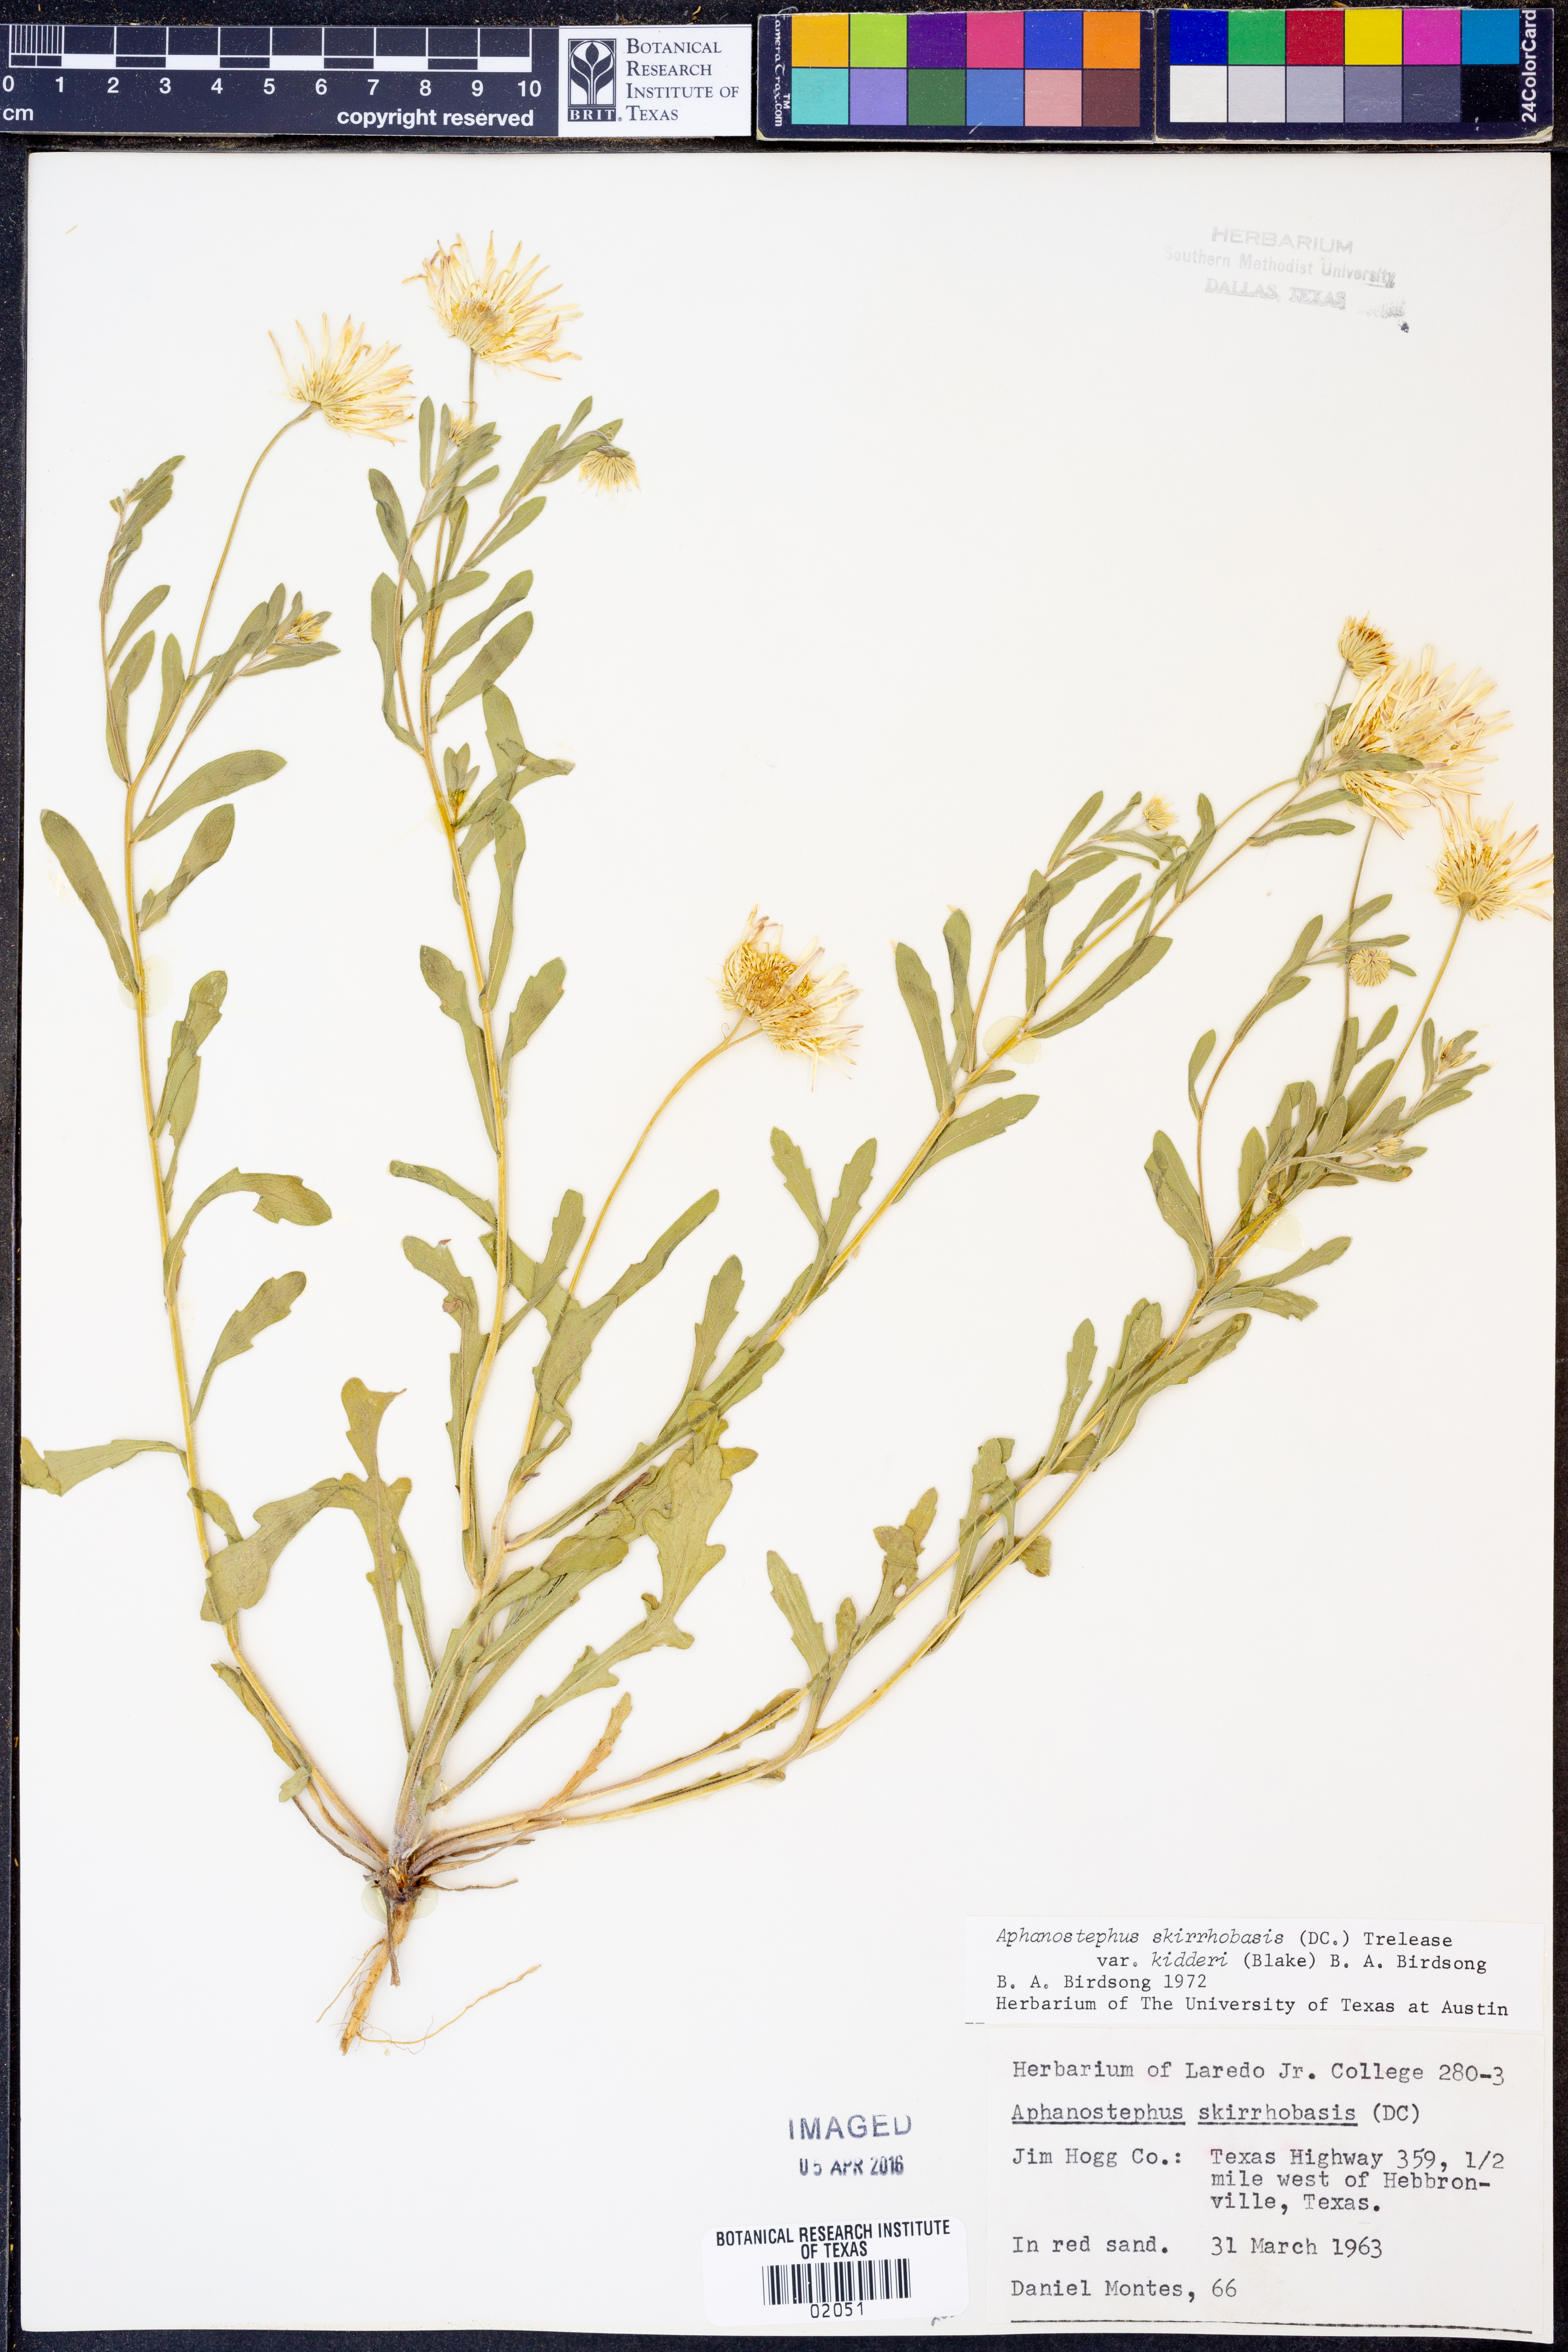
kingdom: Plantae
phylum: Tracheophyta
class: Magnoliopsida
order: Asterales
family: Asteraceae
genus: Aphanostephus
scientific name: Aphanostephus skirrhobasis
